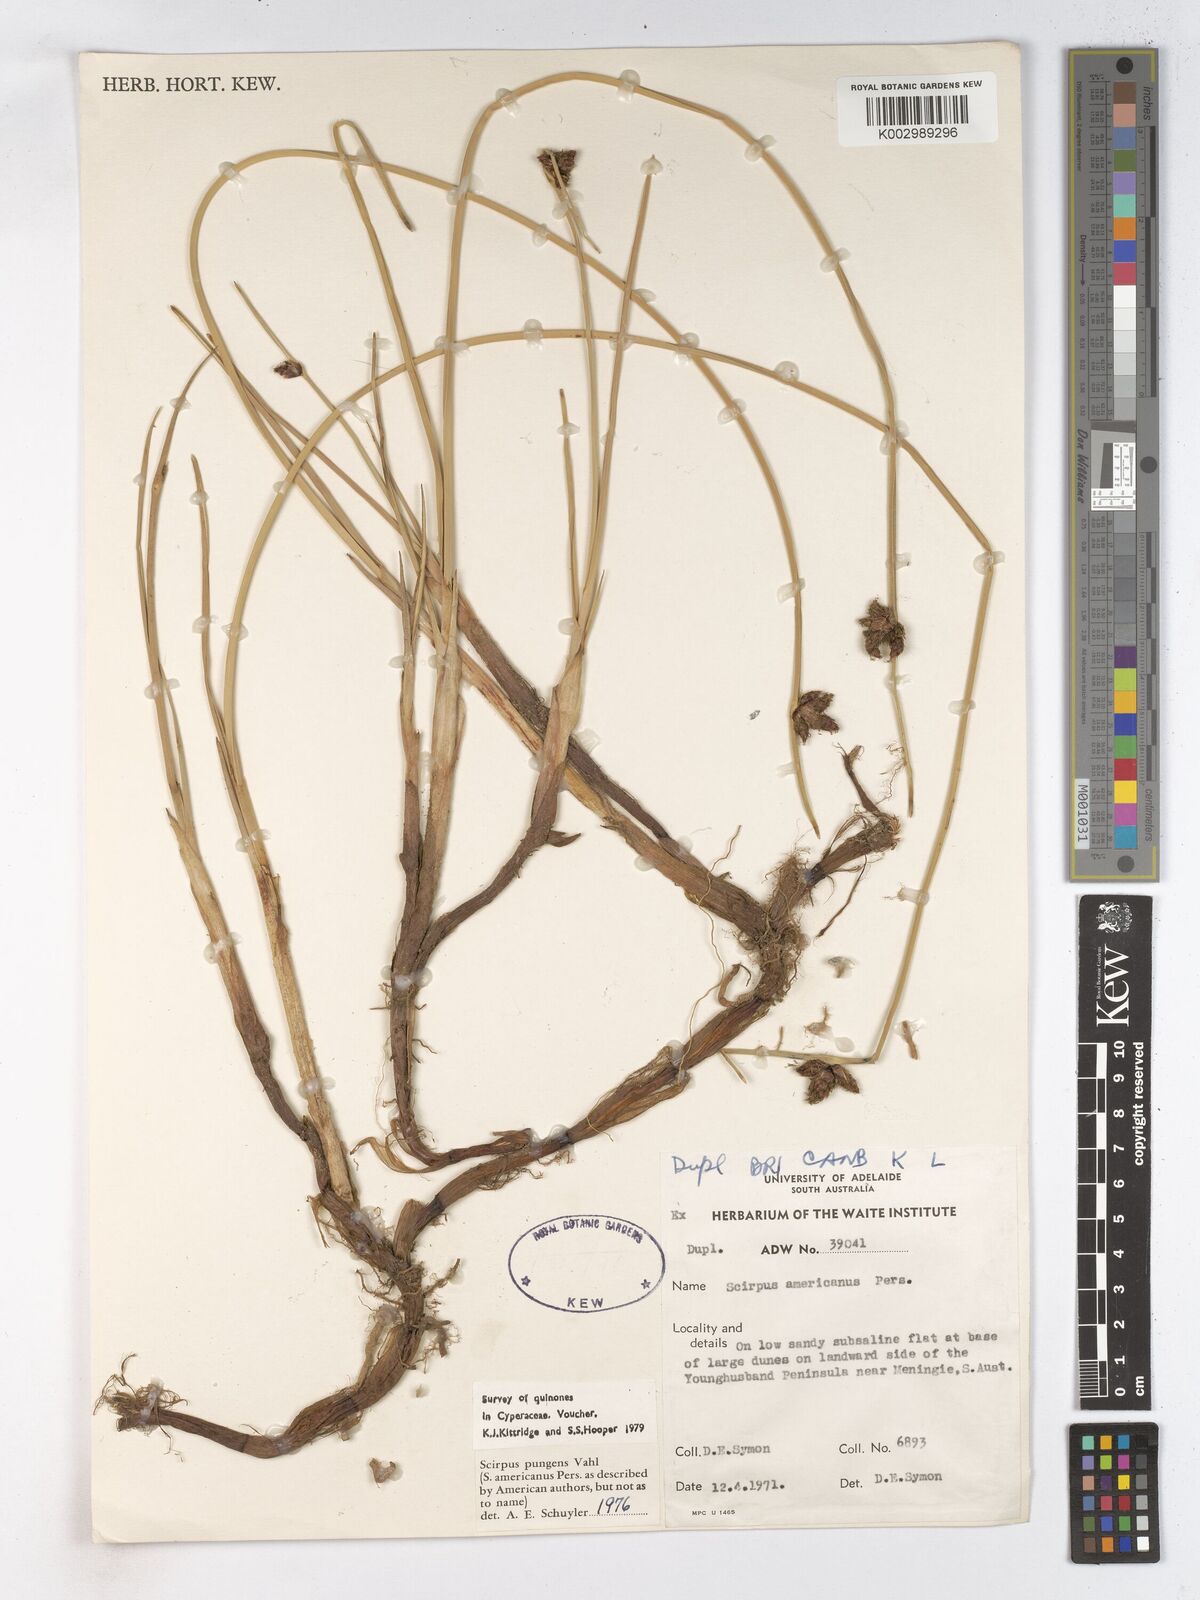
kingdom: Plantae
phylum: Tracheophyta
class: Liliopsida
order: Poales
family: Cyperaceae
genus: Schoenoplectus
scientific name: Schoenoplectus pungens
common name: Sharp club-rush
